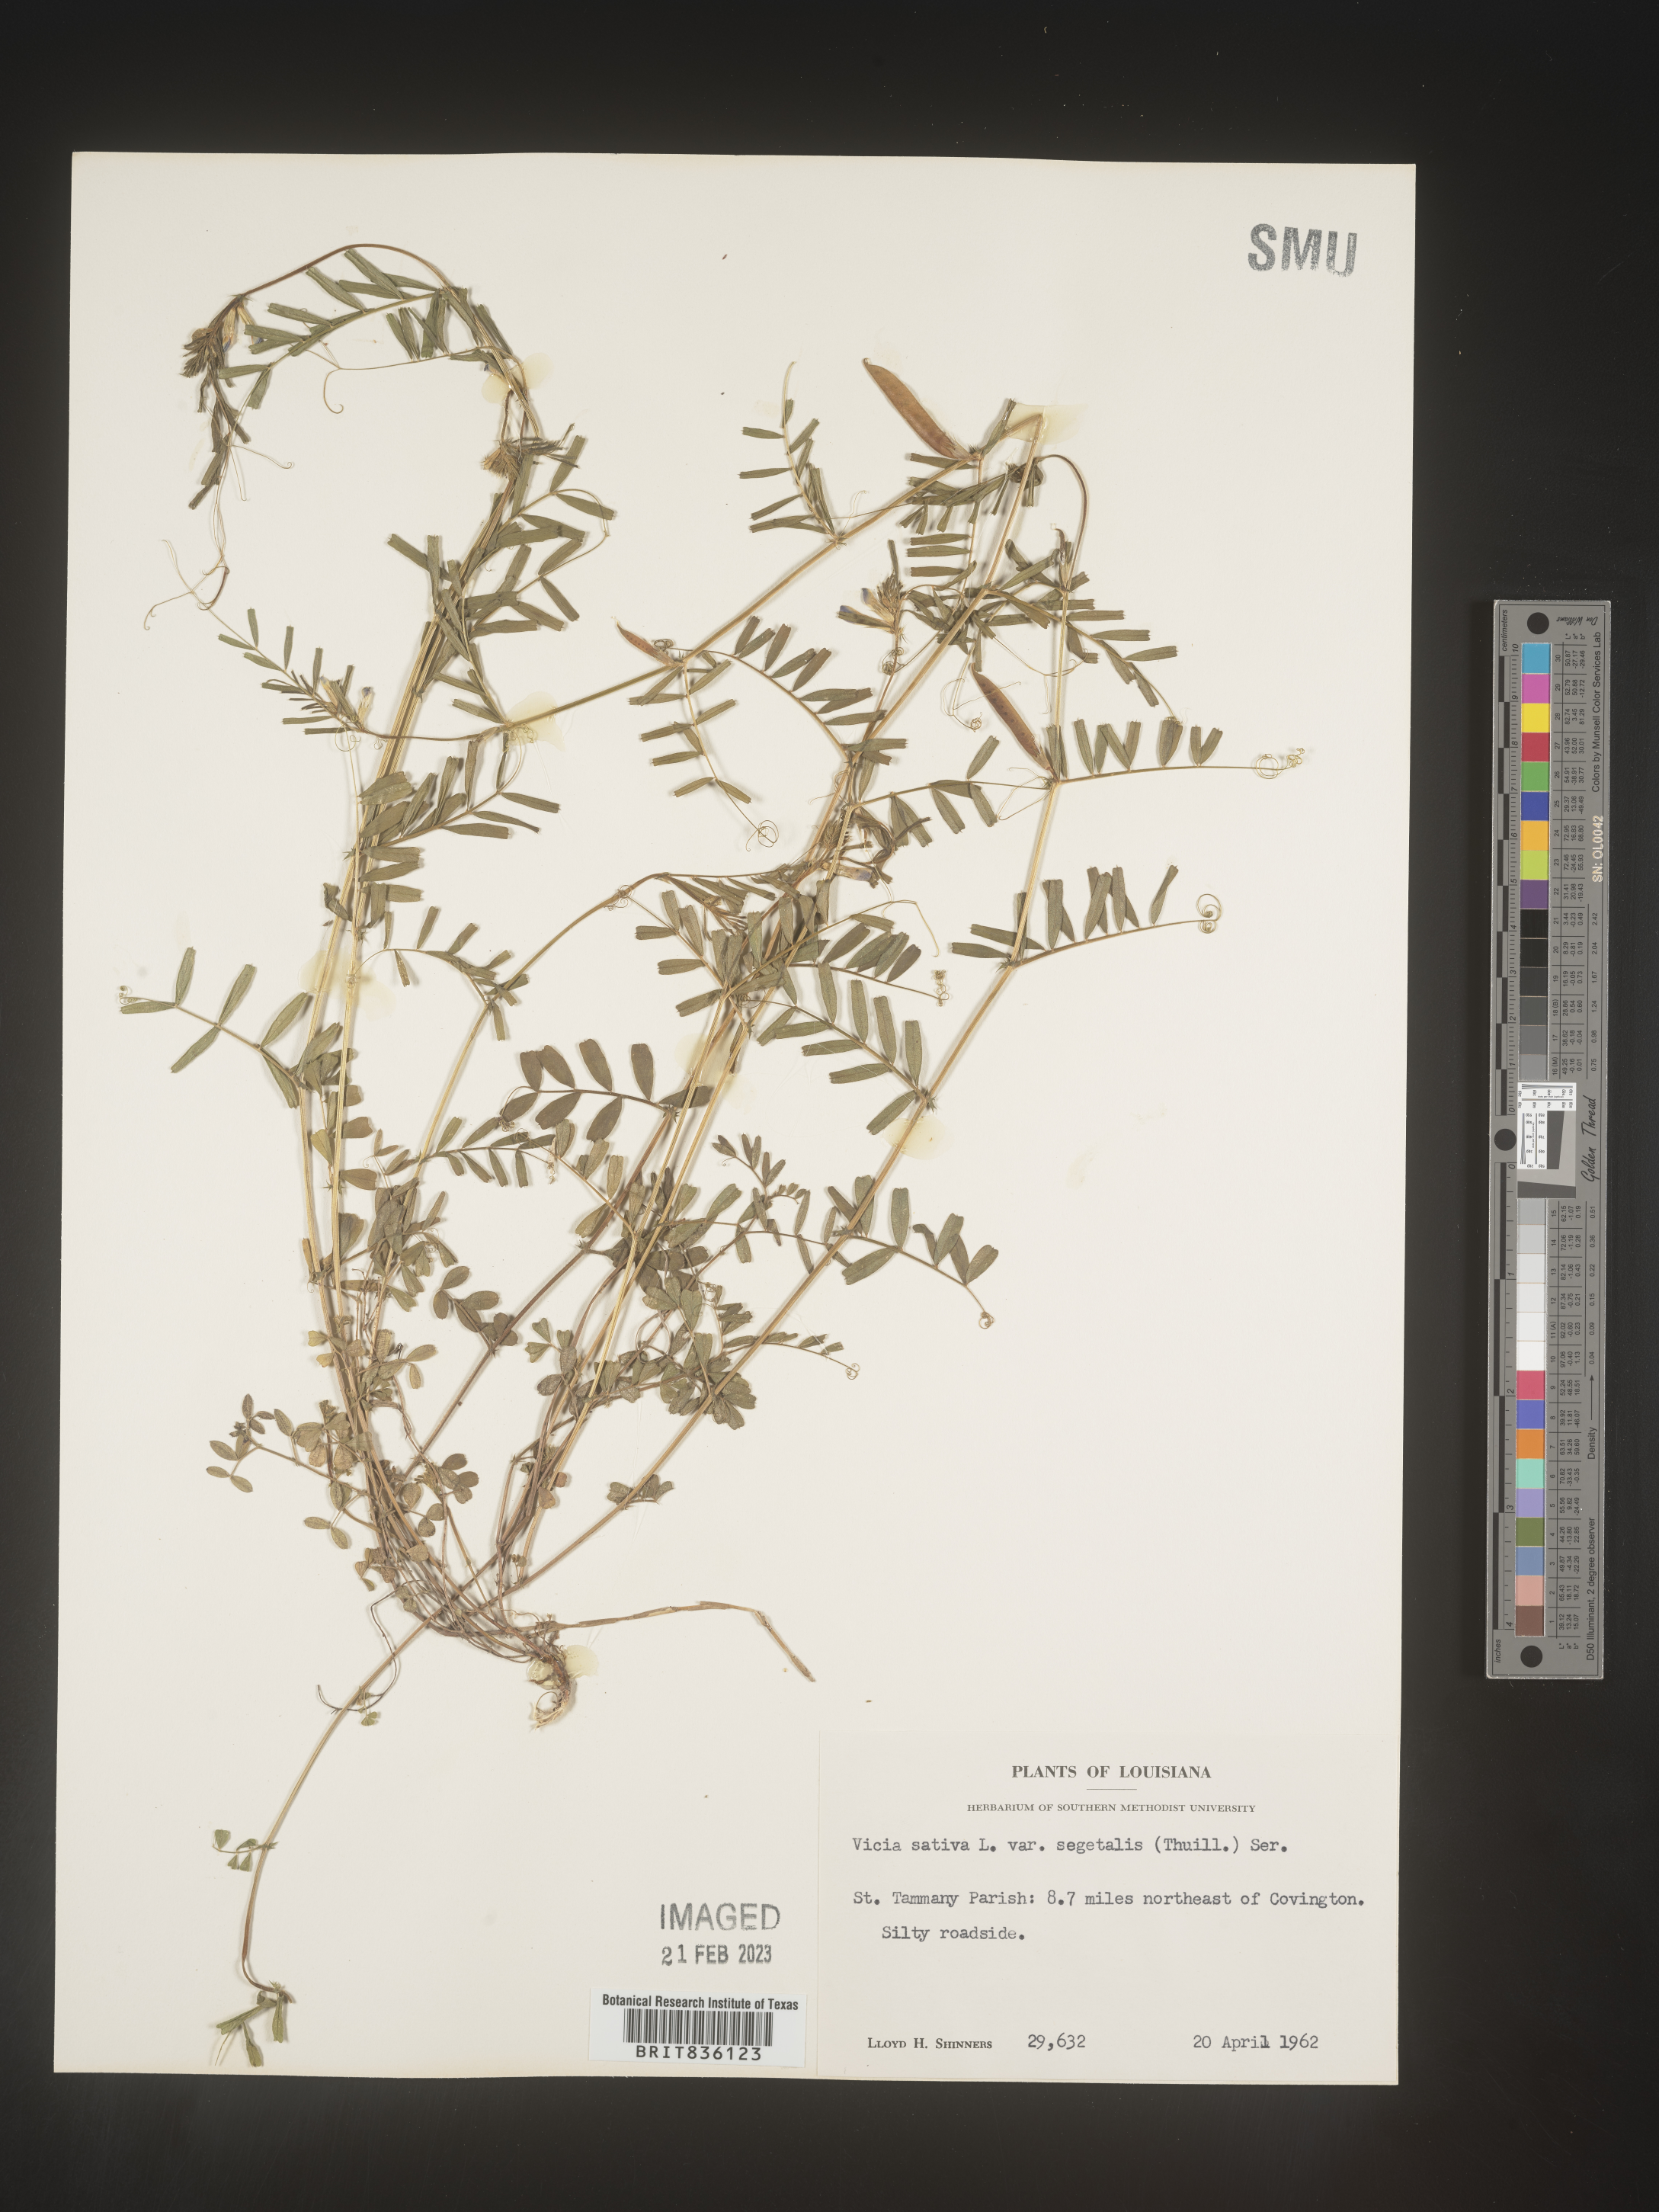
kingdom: Plantae
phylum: Tracheophyta
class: Magnoliopsida
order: Fabales
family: Fabaceae
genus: Vicia
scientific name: Vicia sativa
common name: Garden vetch
